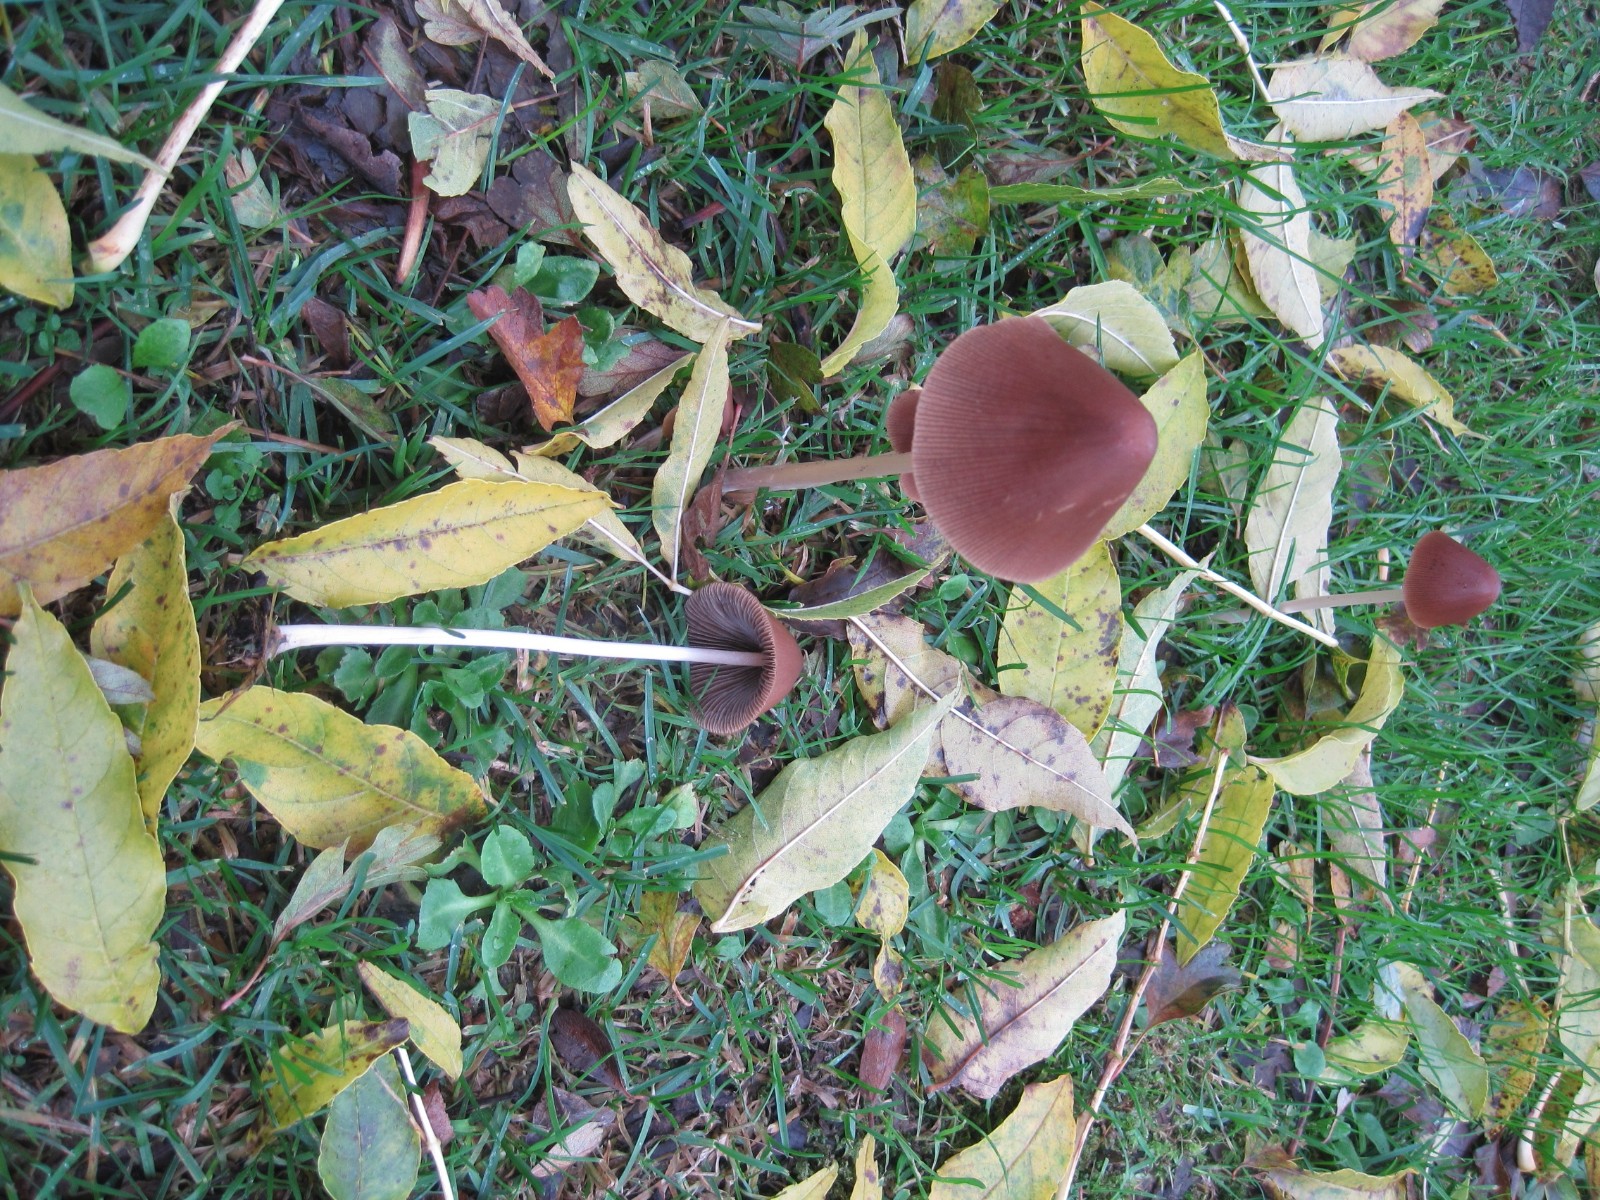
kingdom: Fungi
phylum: Basidiomycota
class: Agaricomycetes
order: Agaricales
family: Psathyrellaceae
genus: Parasola
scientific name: Parasola conopilea
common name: kegle-hjulhat
